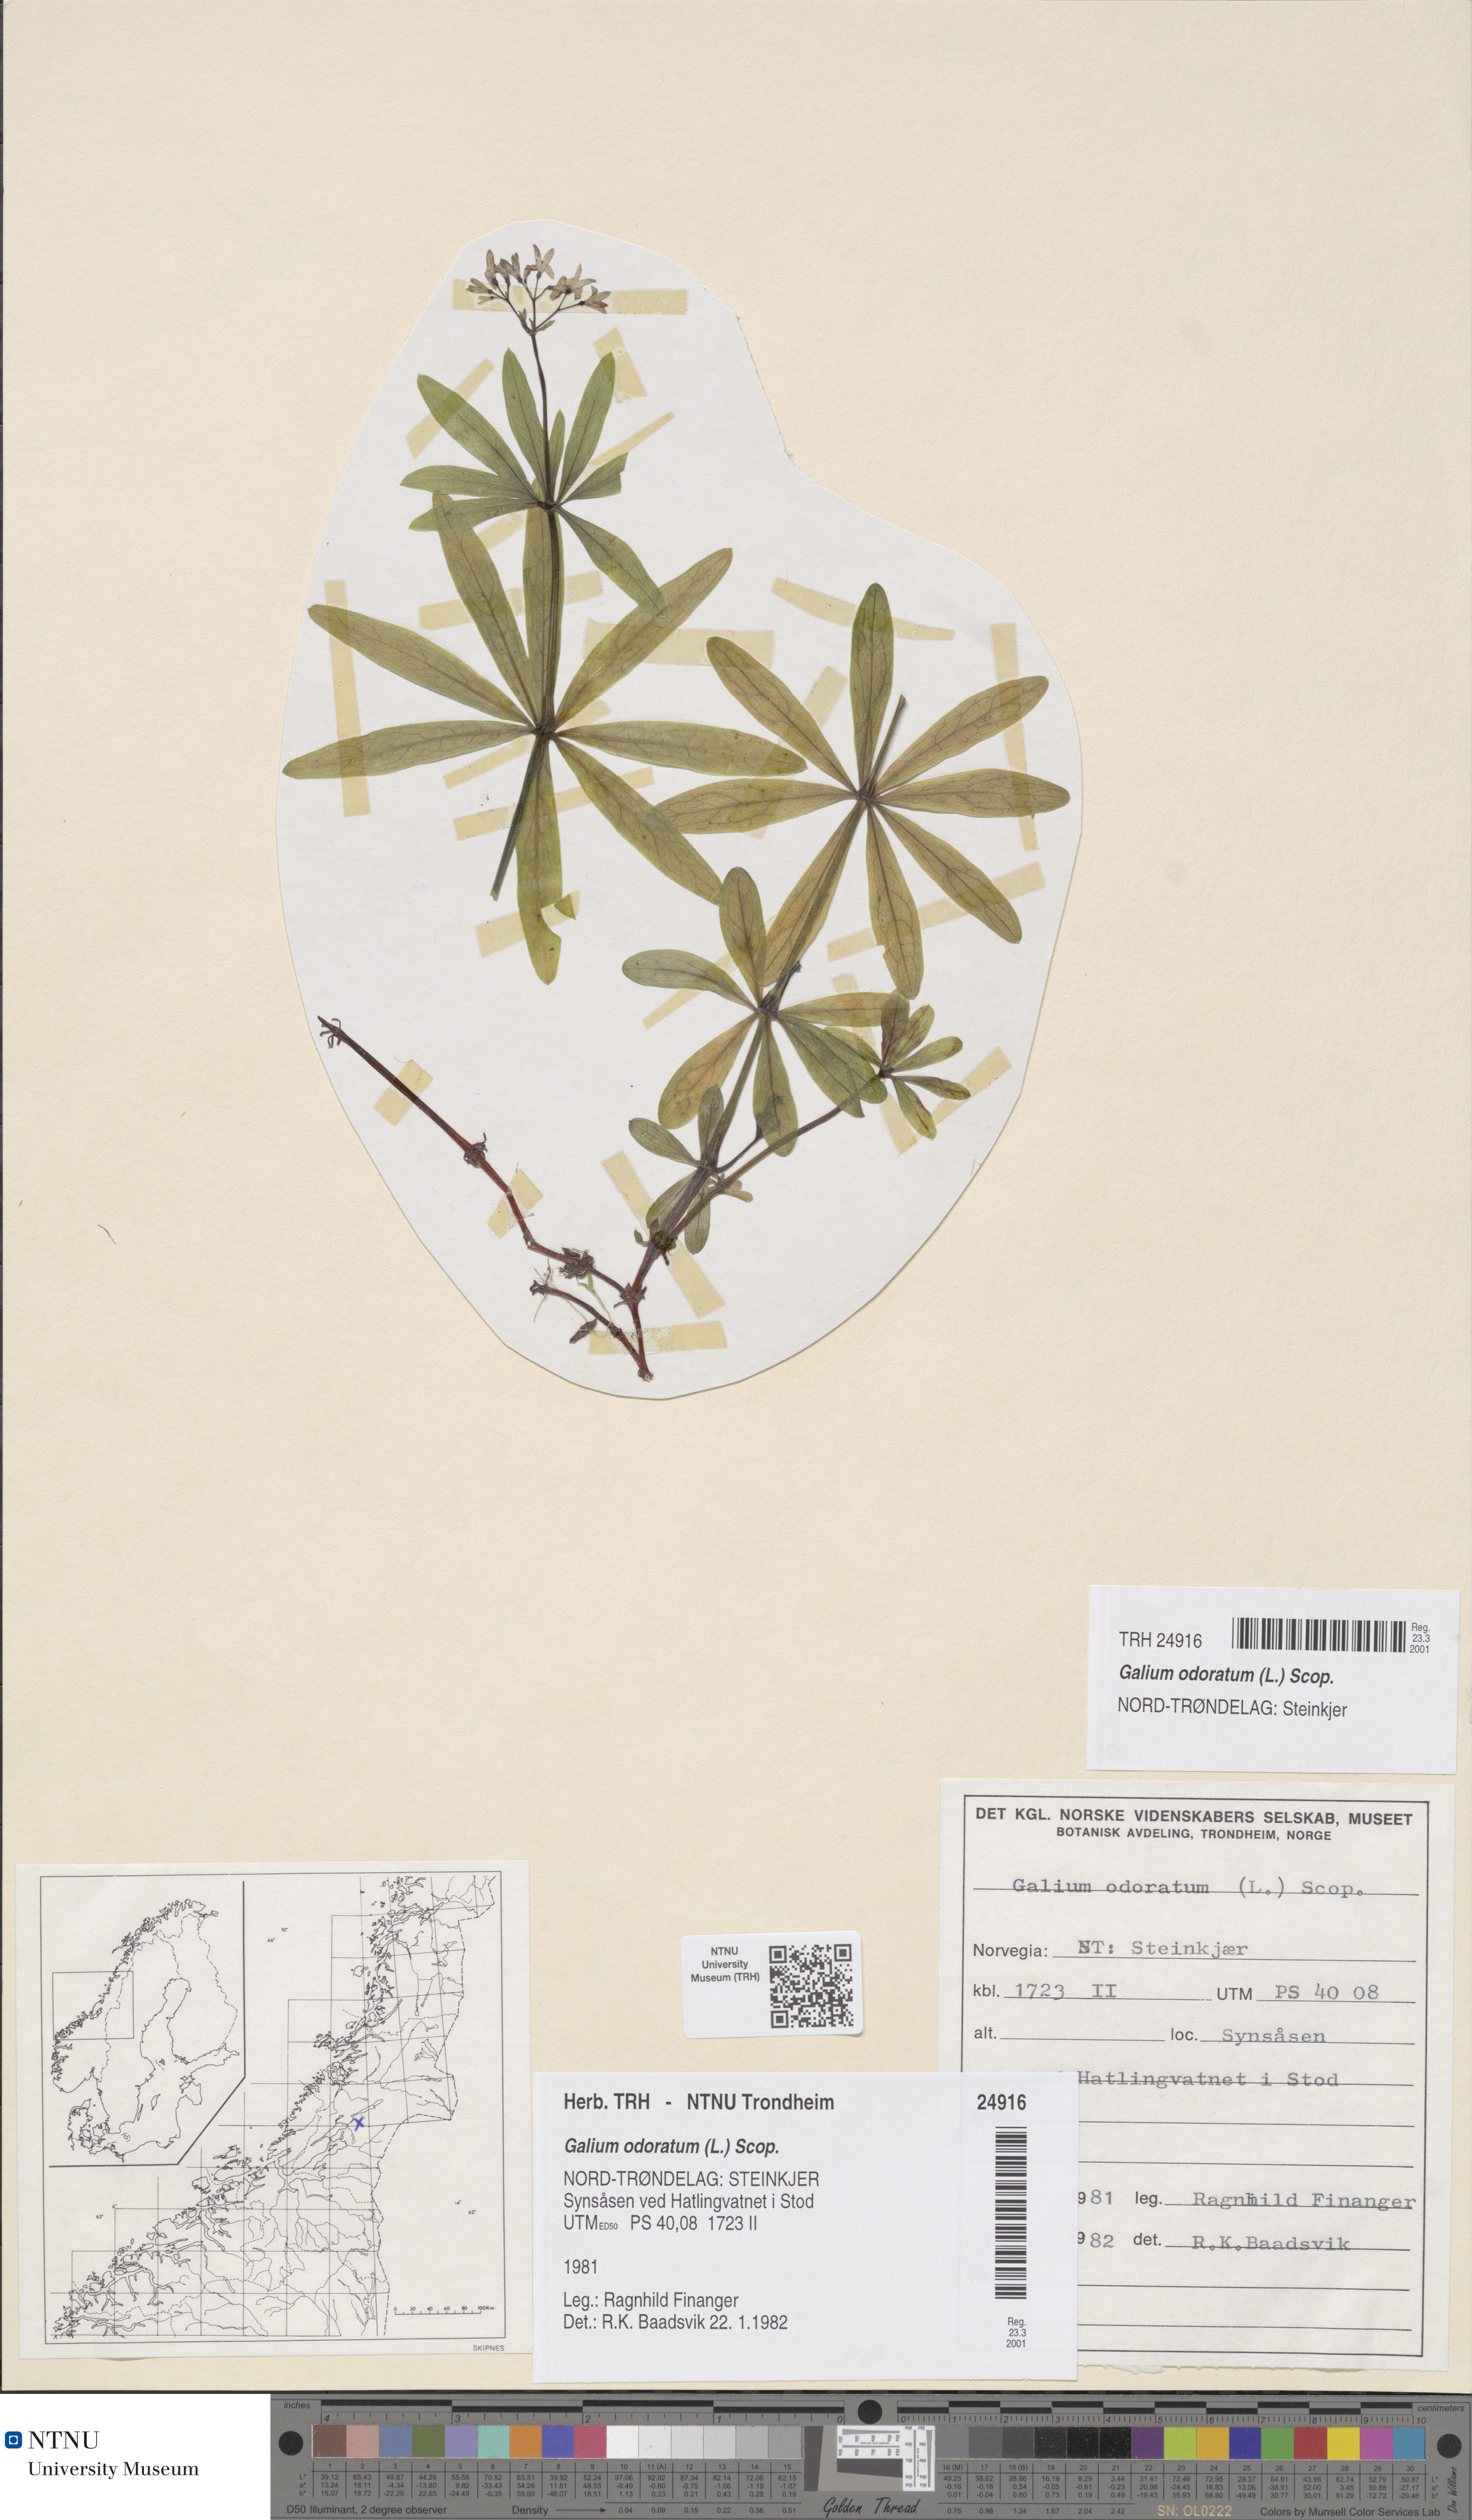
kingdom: Plantae
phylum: Tracheophyta
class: Magnoliopsida
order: Gentianales
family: Rubiaceae
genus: Galium
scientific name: Galium odoratum
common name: Sweet woodruff
